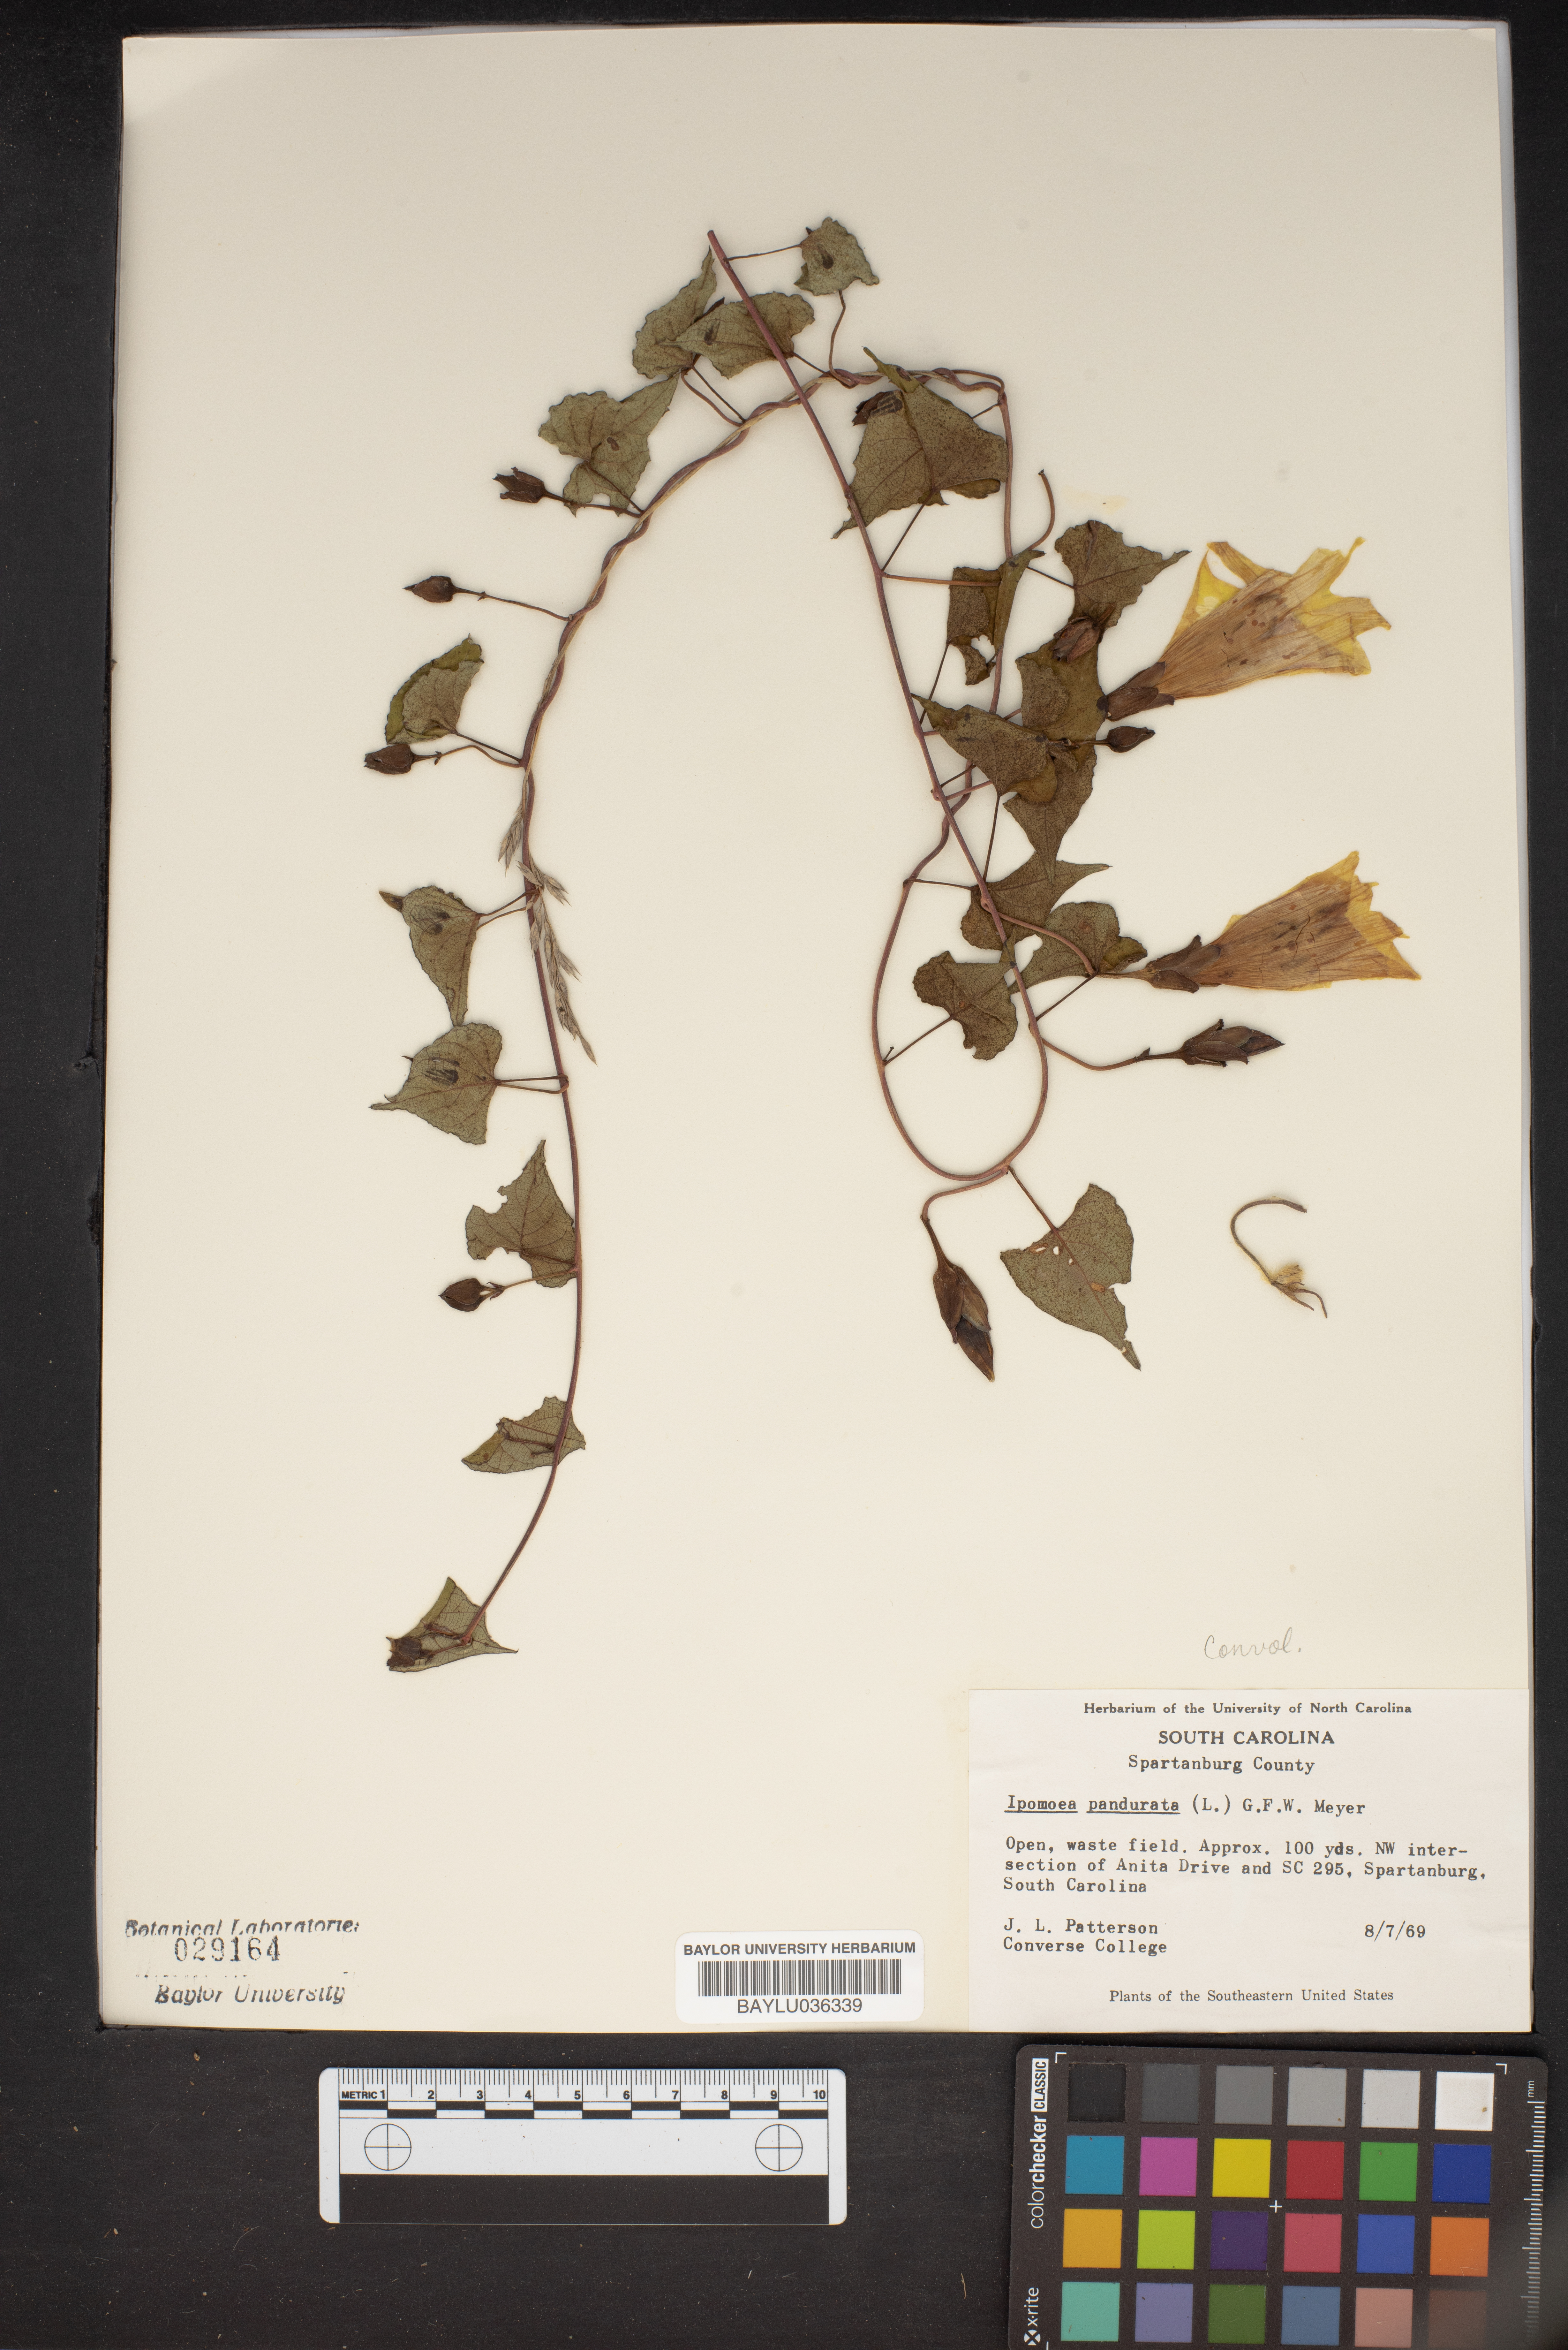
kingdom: Plantae
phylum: Tracheophyta
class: Magnoliopsida
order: Solanales
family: Convolvulaceae
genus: Ipomoea
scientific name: Ipomoea pandurata
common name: Man-of-the-earth
